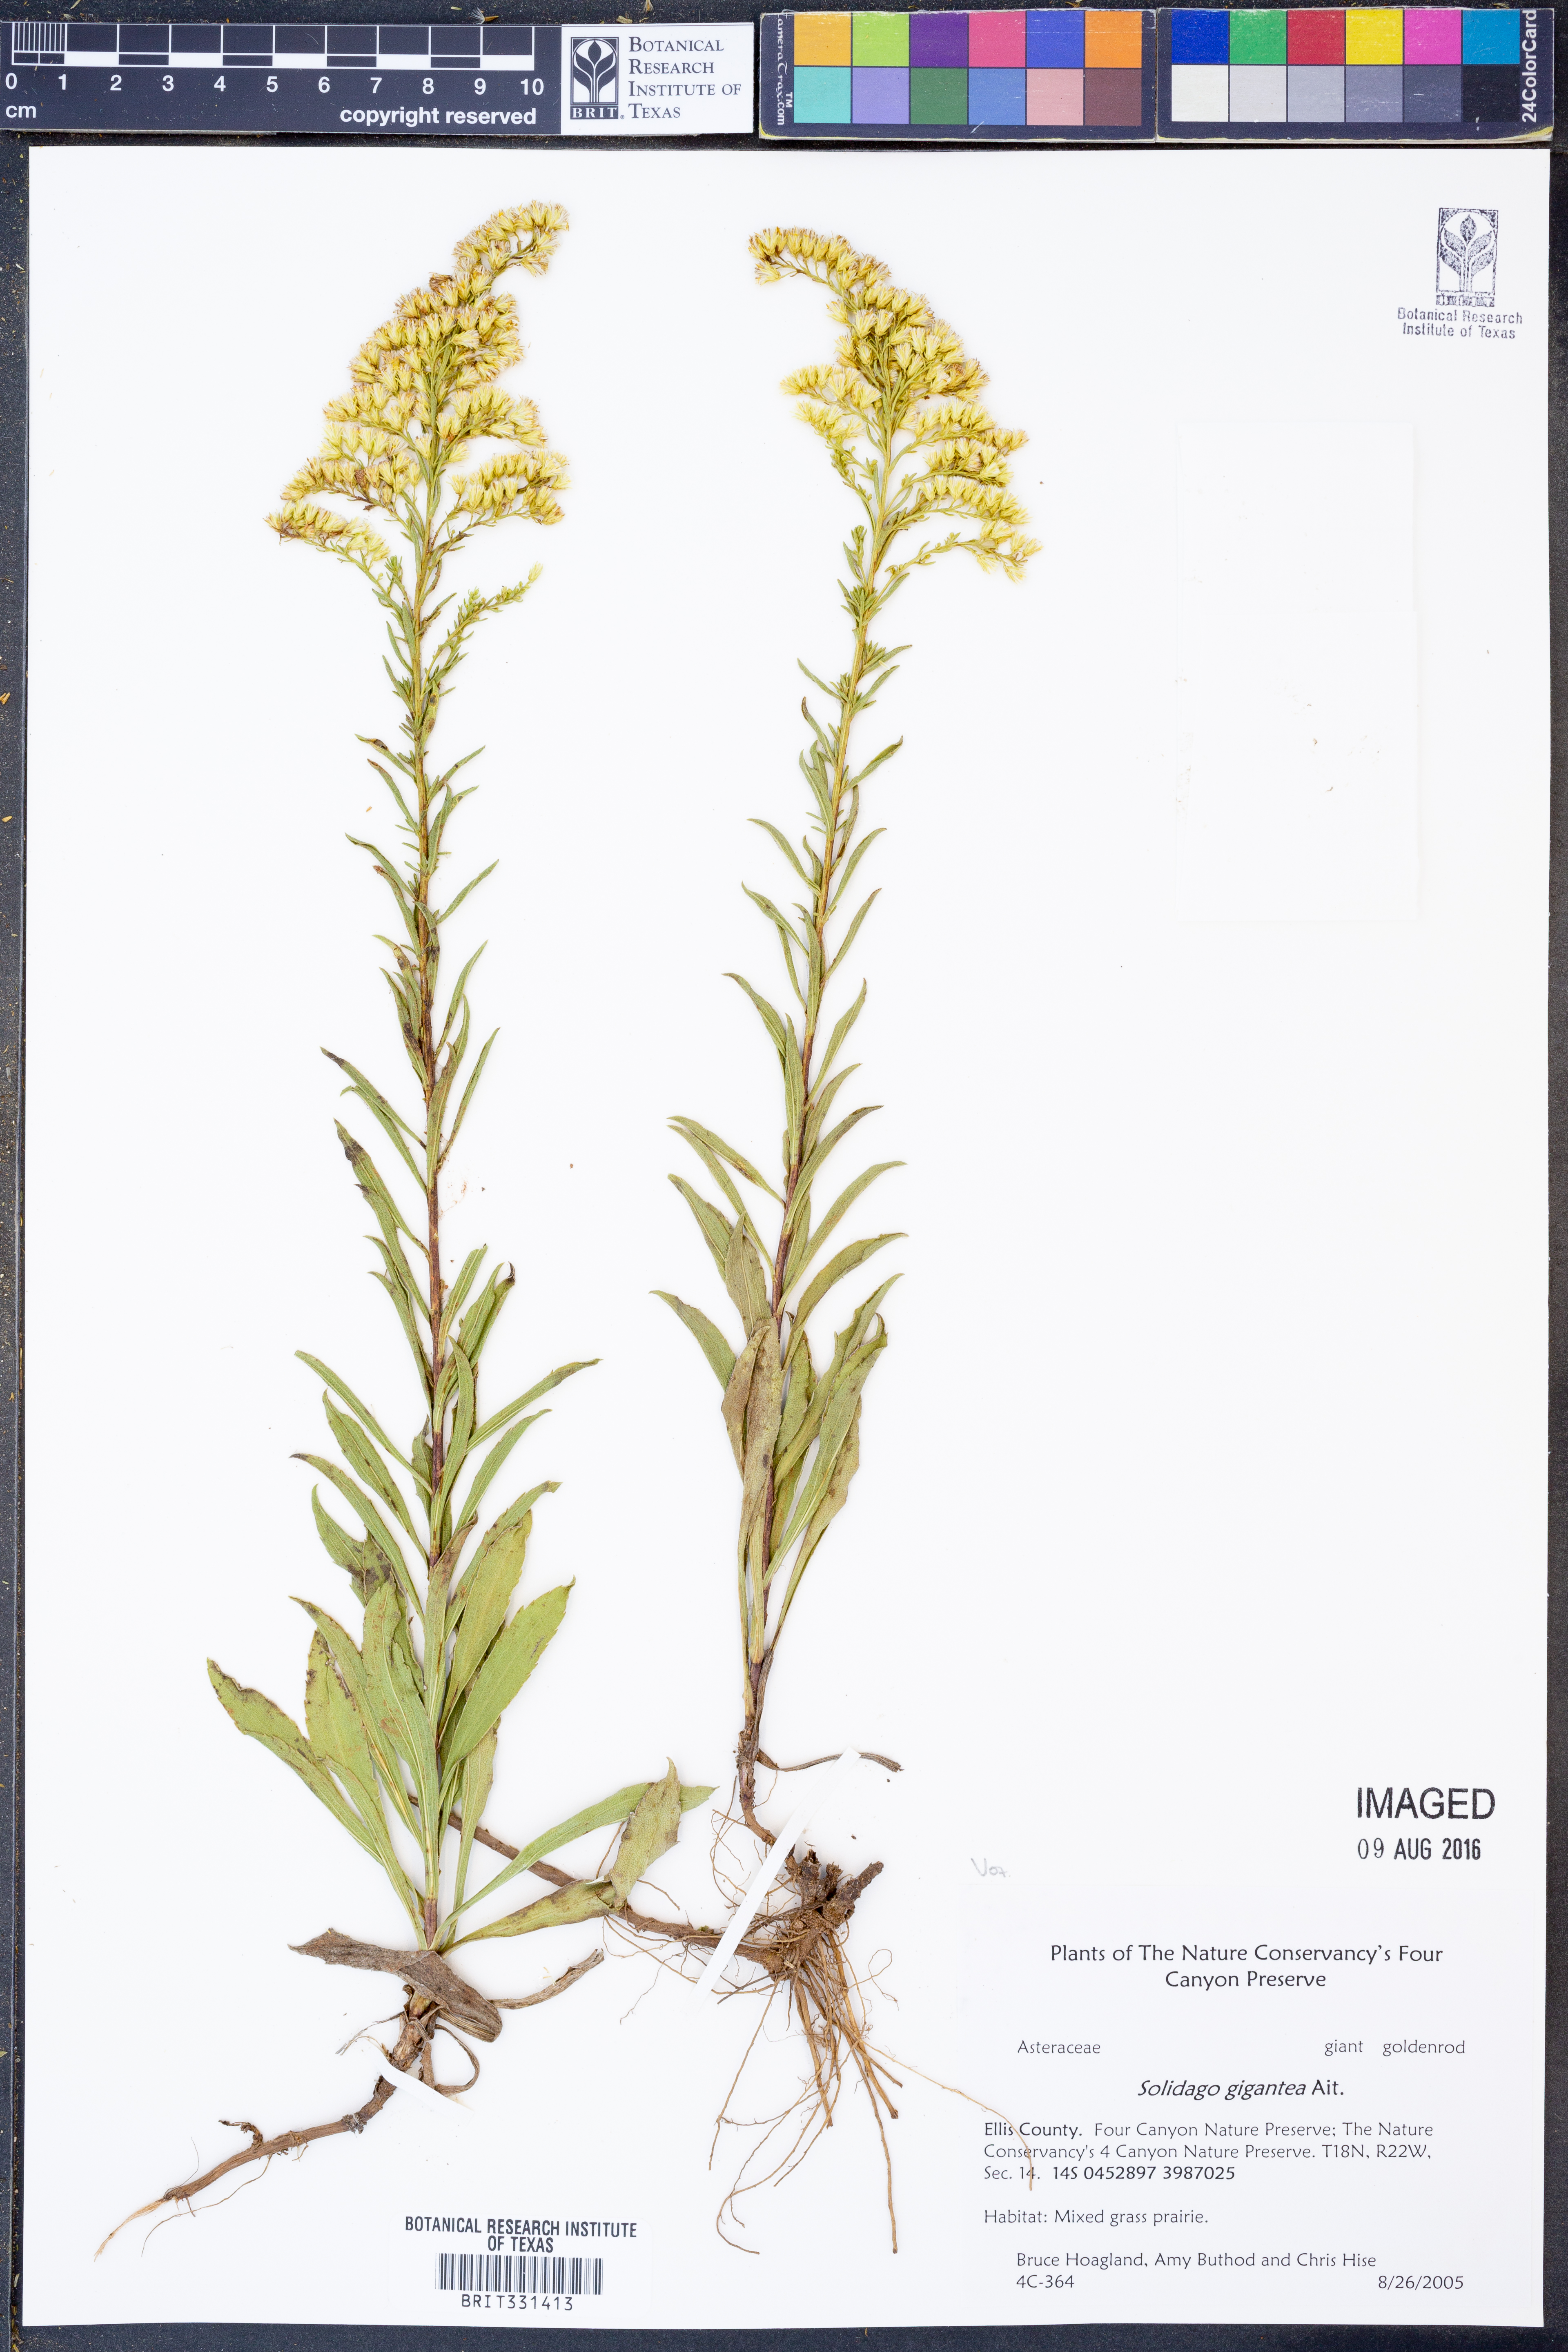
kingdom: Plantae
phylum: Tracheophyta
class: Magnoliopsida
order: Asterales
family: Asteraceae
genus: Solidago
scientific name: Solidago gigantea
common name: Giant goldenrod
